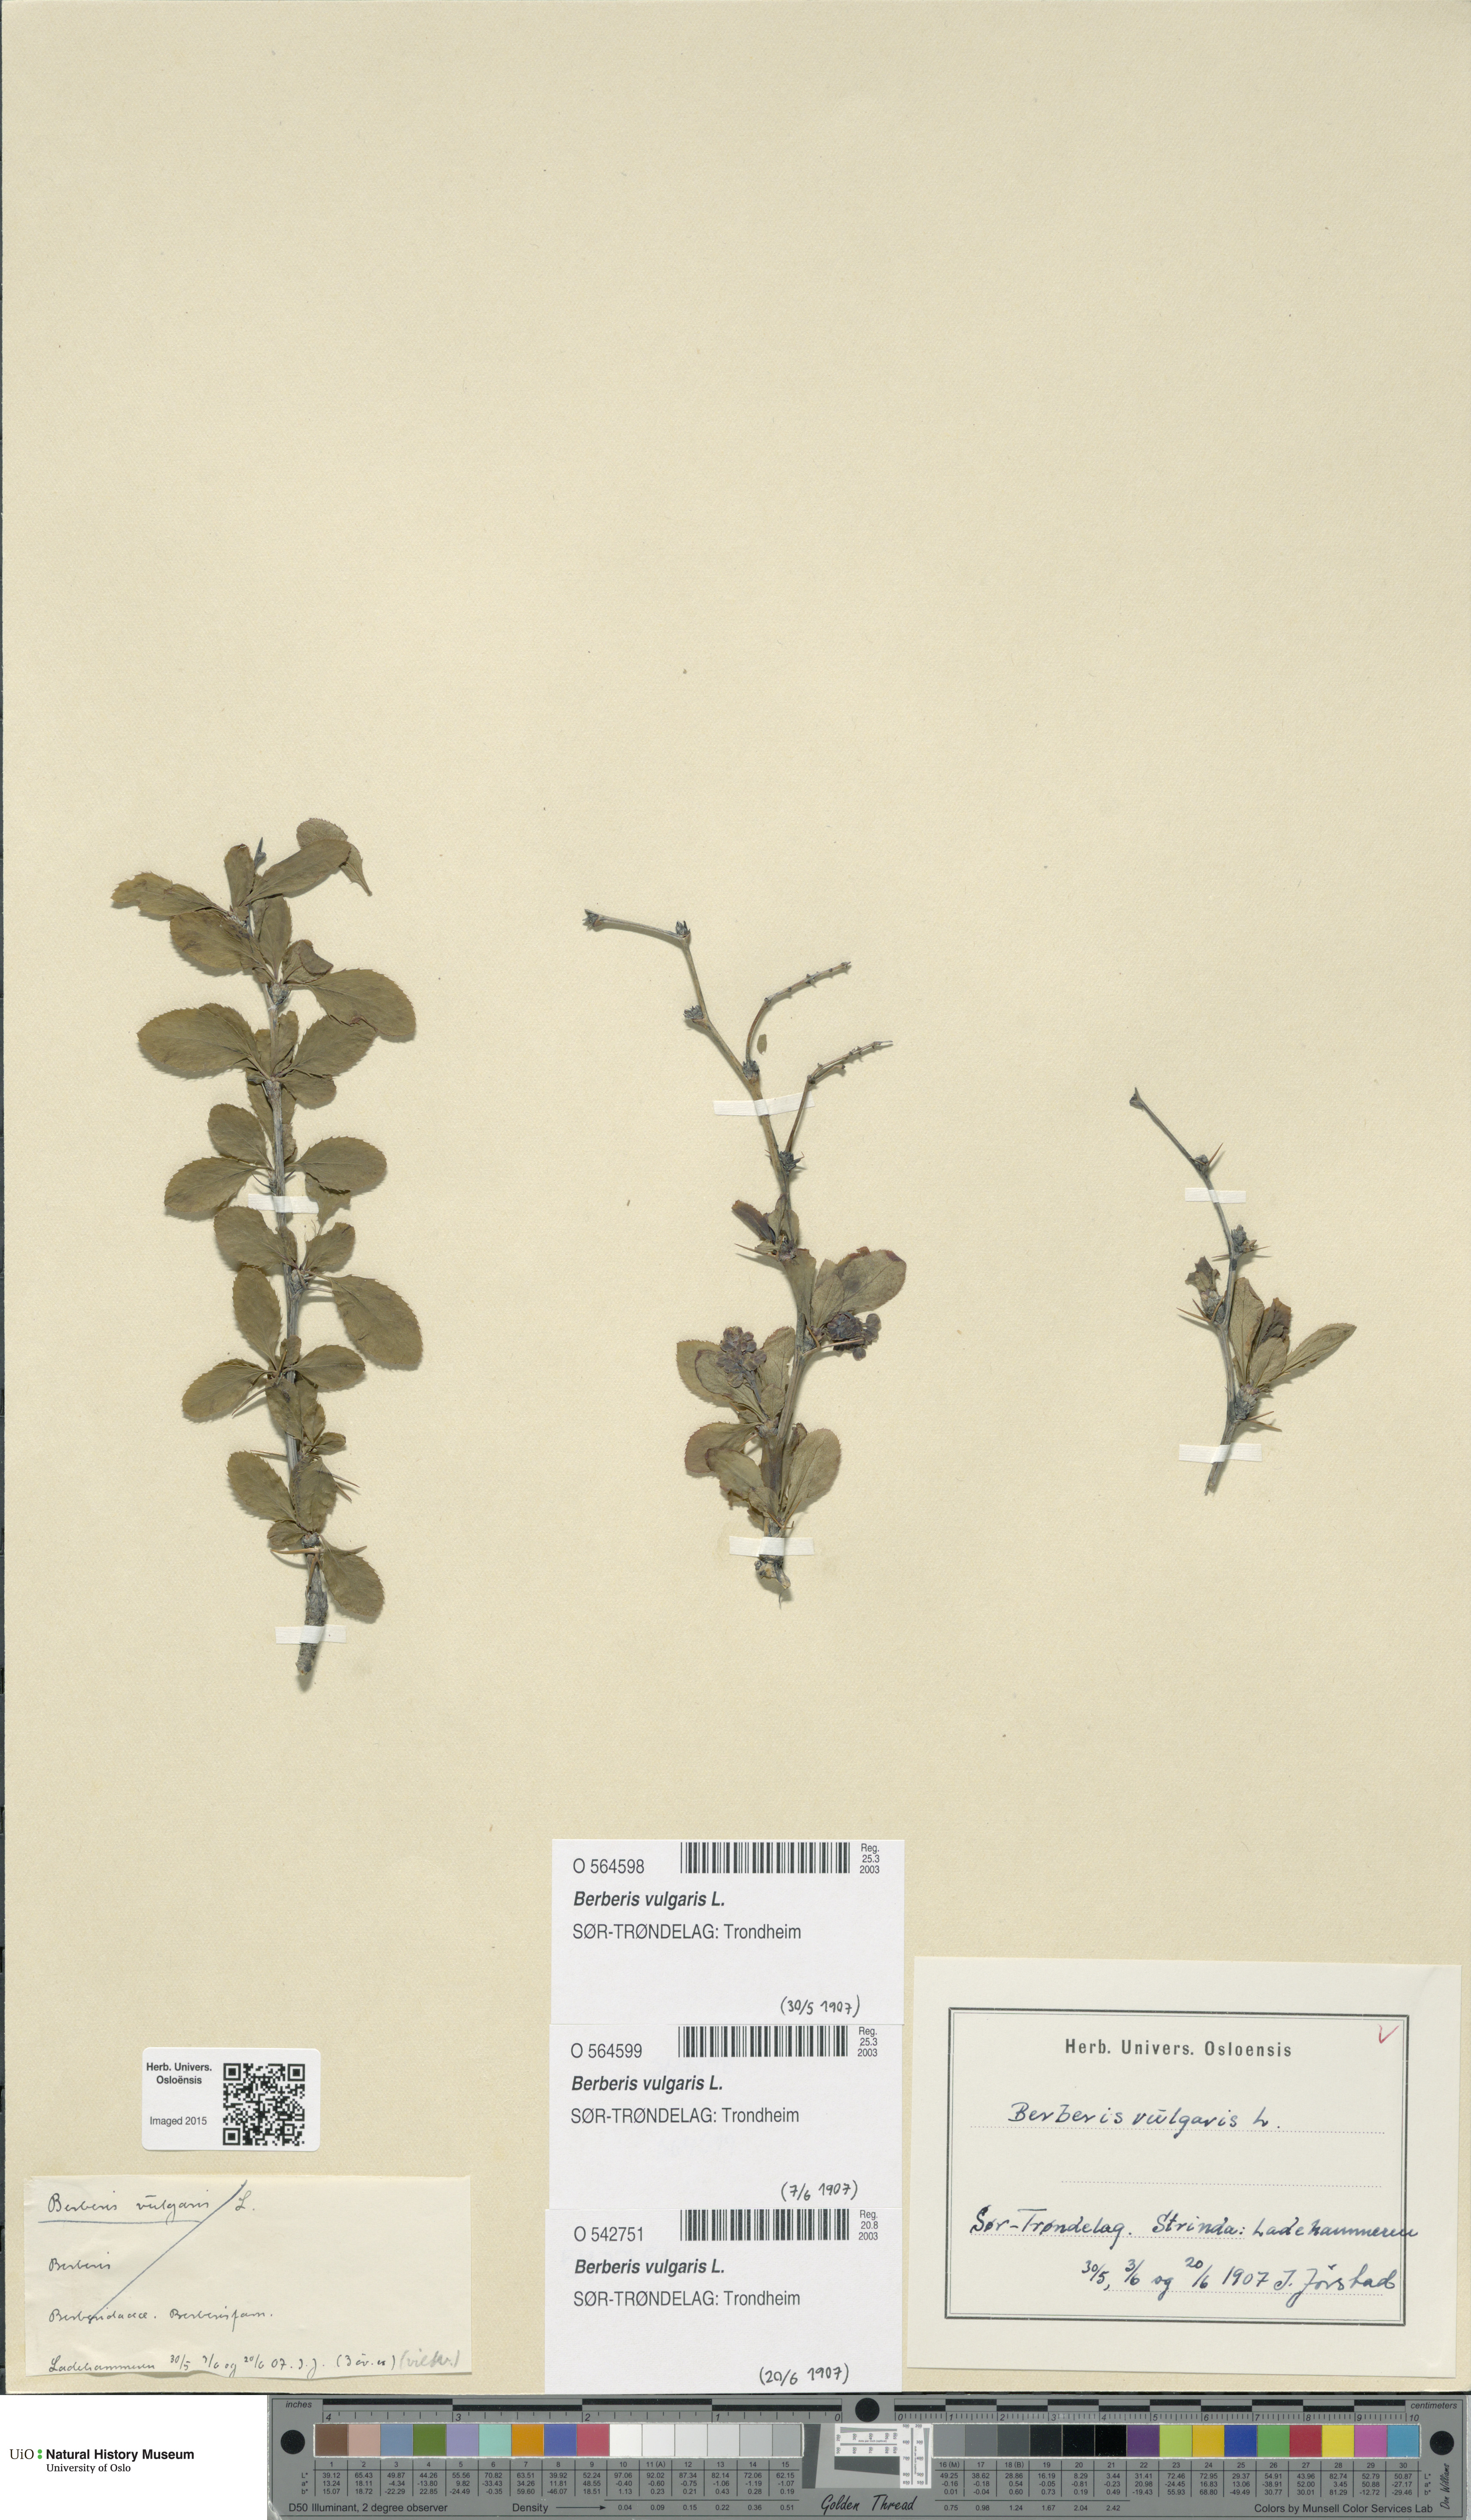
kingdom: Plantae
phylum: Tracheophyta
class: Magnoliopsida
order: Ranunculales
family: Berberidaceae
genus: Berberis
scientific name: Berberis vulgaris
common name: Barberry
